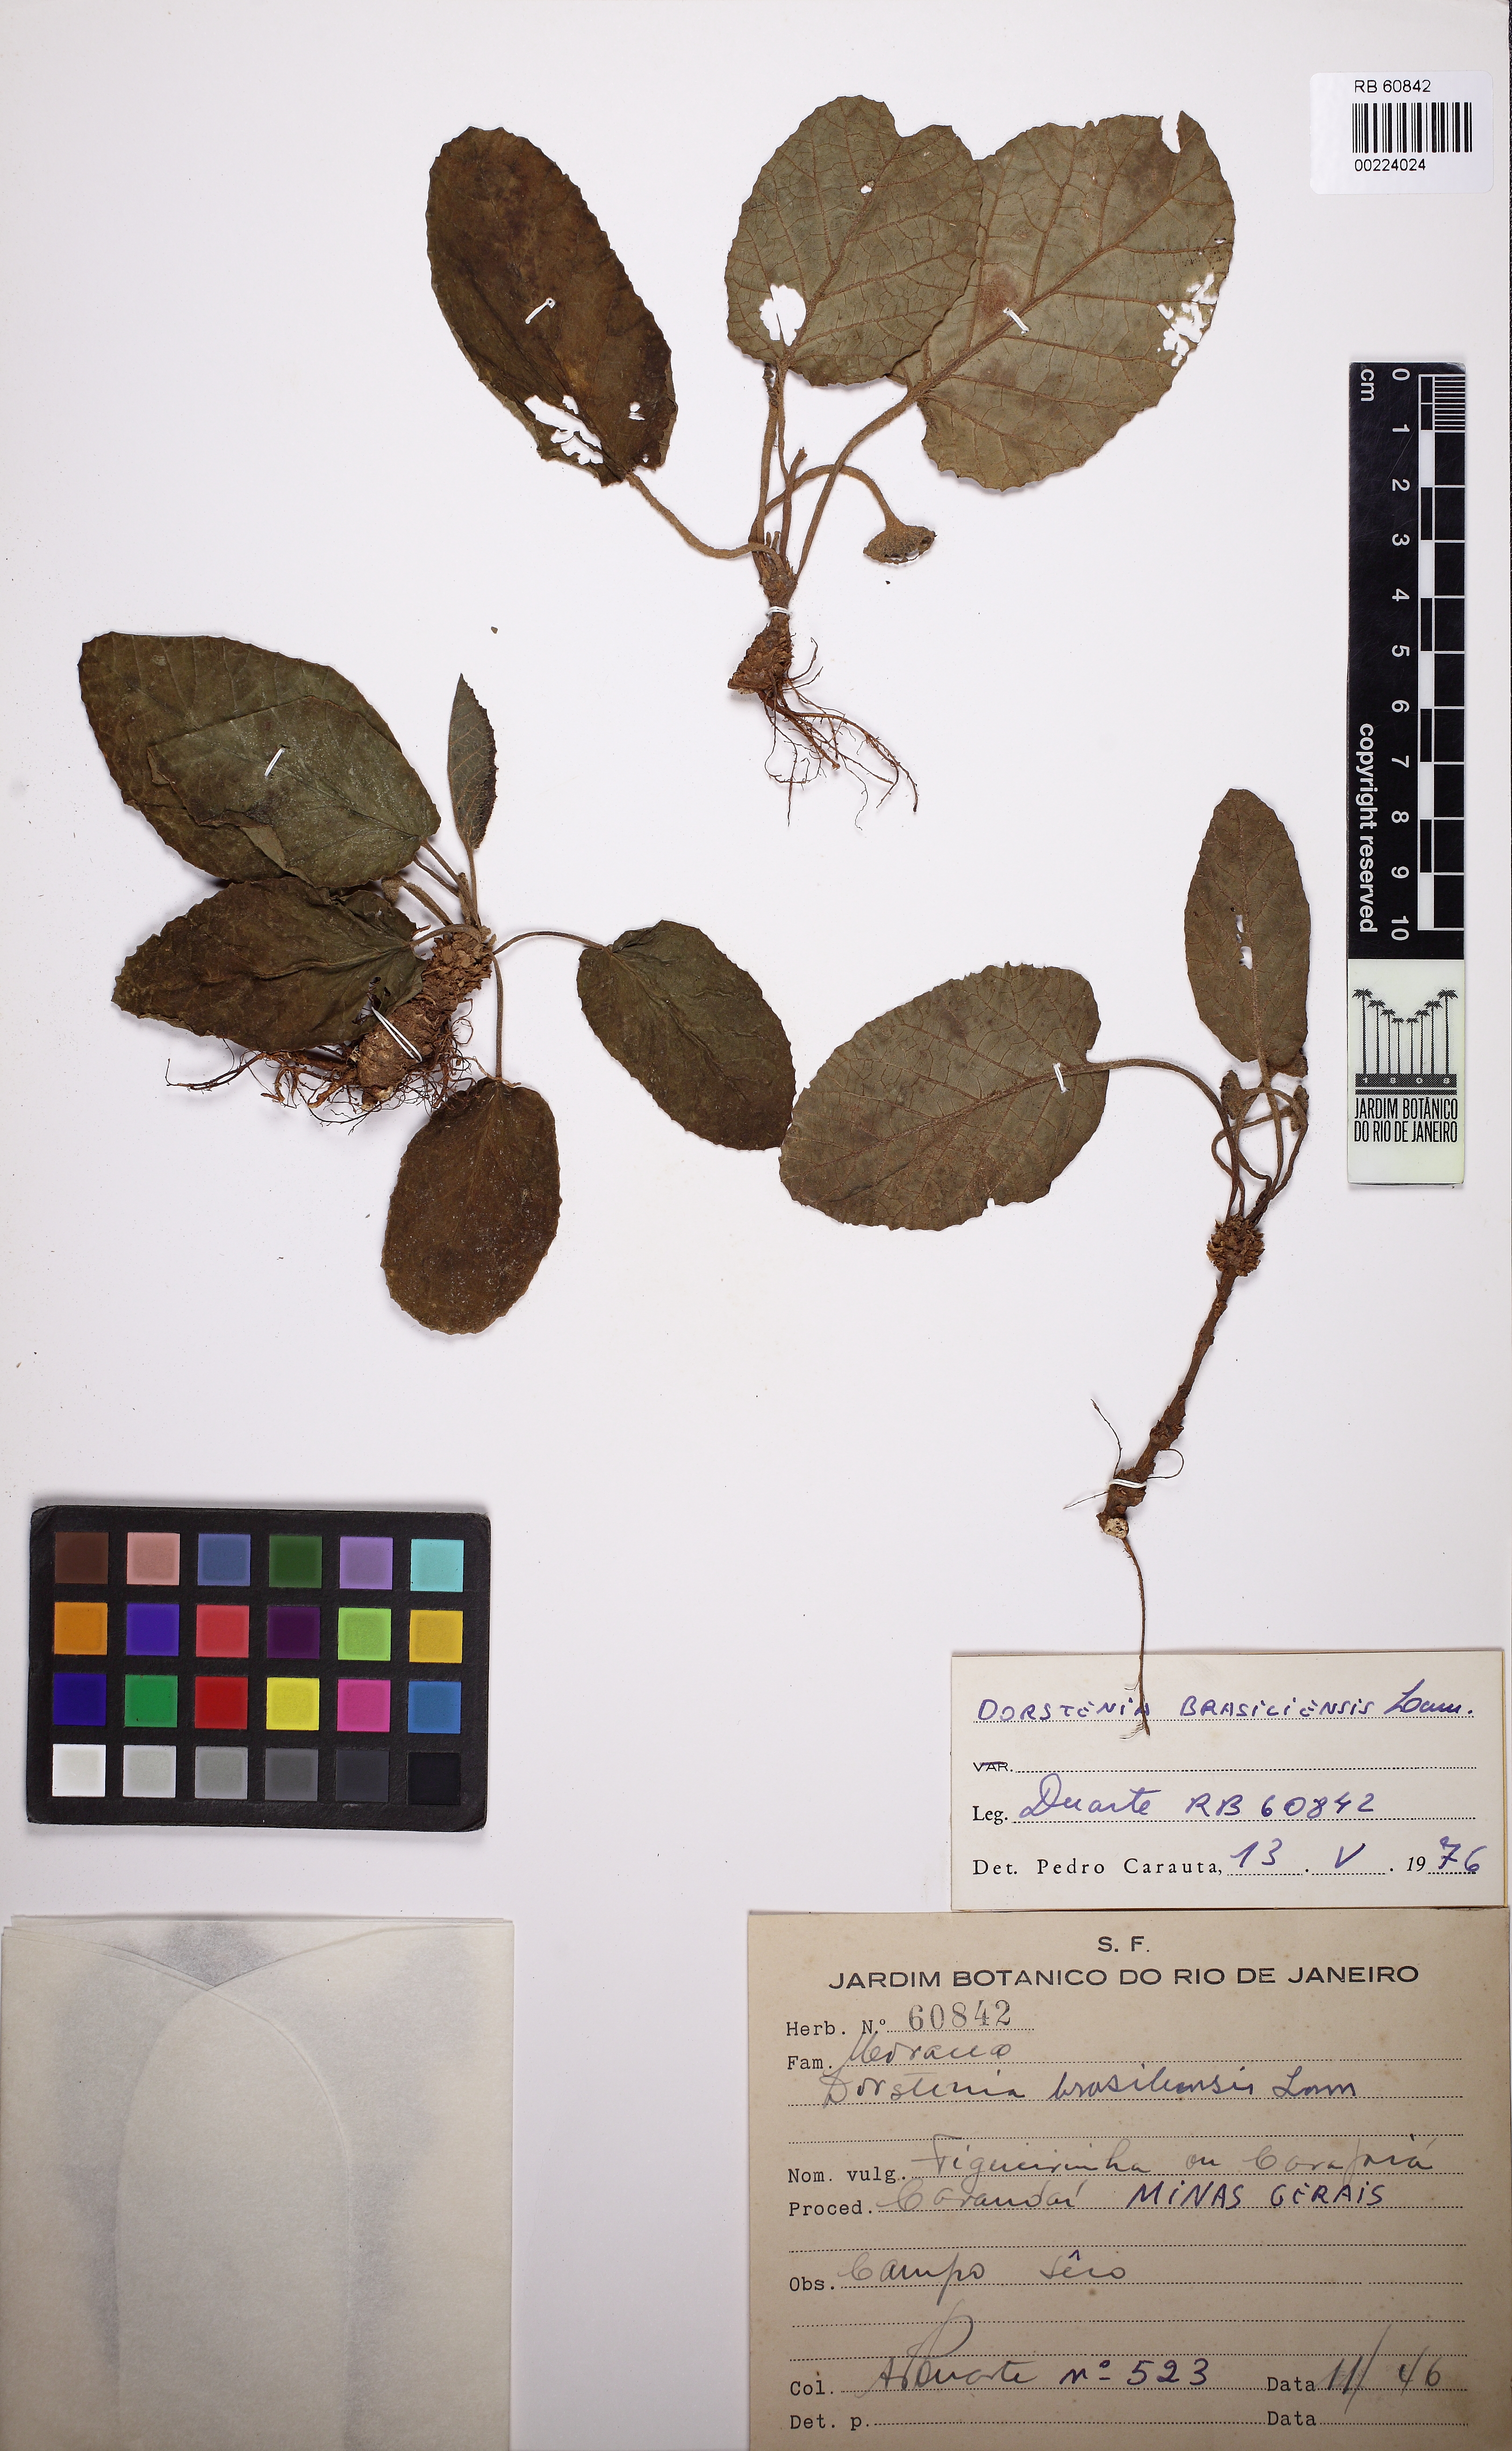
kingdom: Plantae
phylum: Tracheophyta
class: Magnoliopsida
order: Rosales
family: Moraceae
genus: Dorstenia
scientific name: Dorstenia brasiliensis
